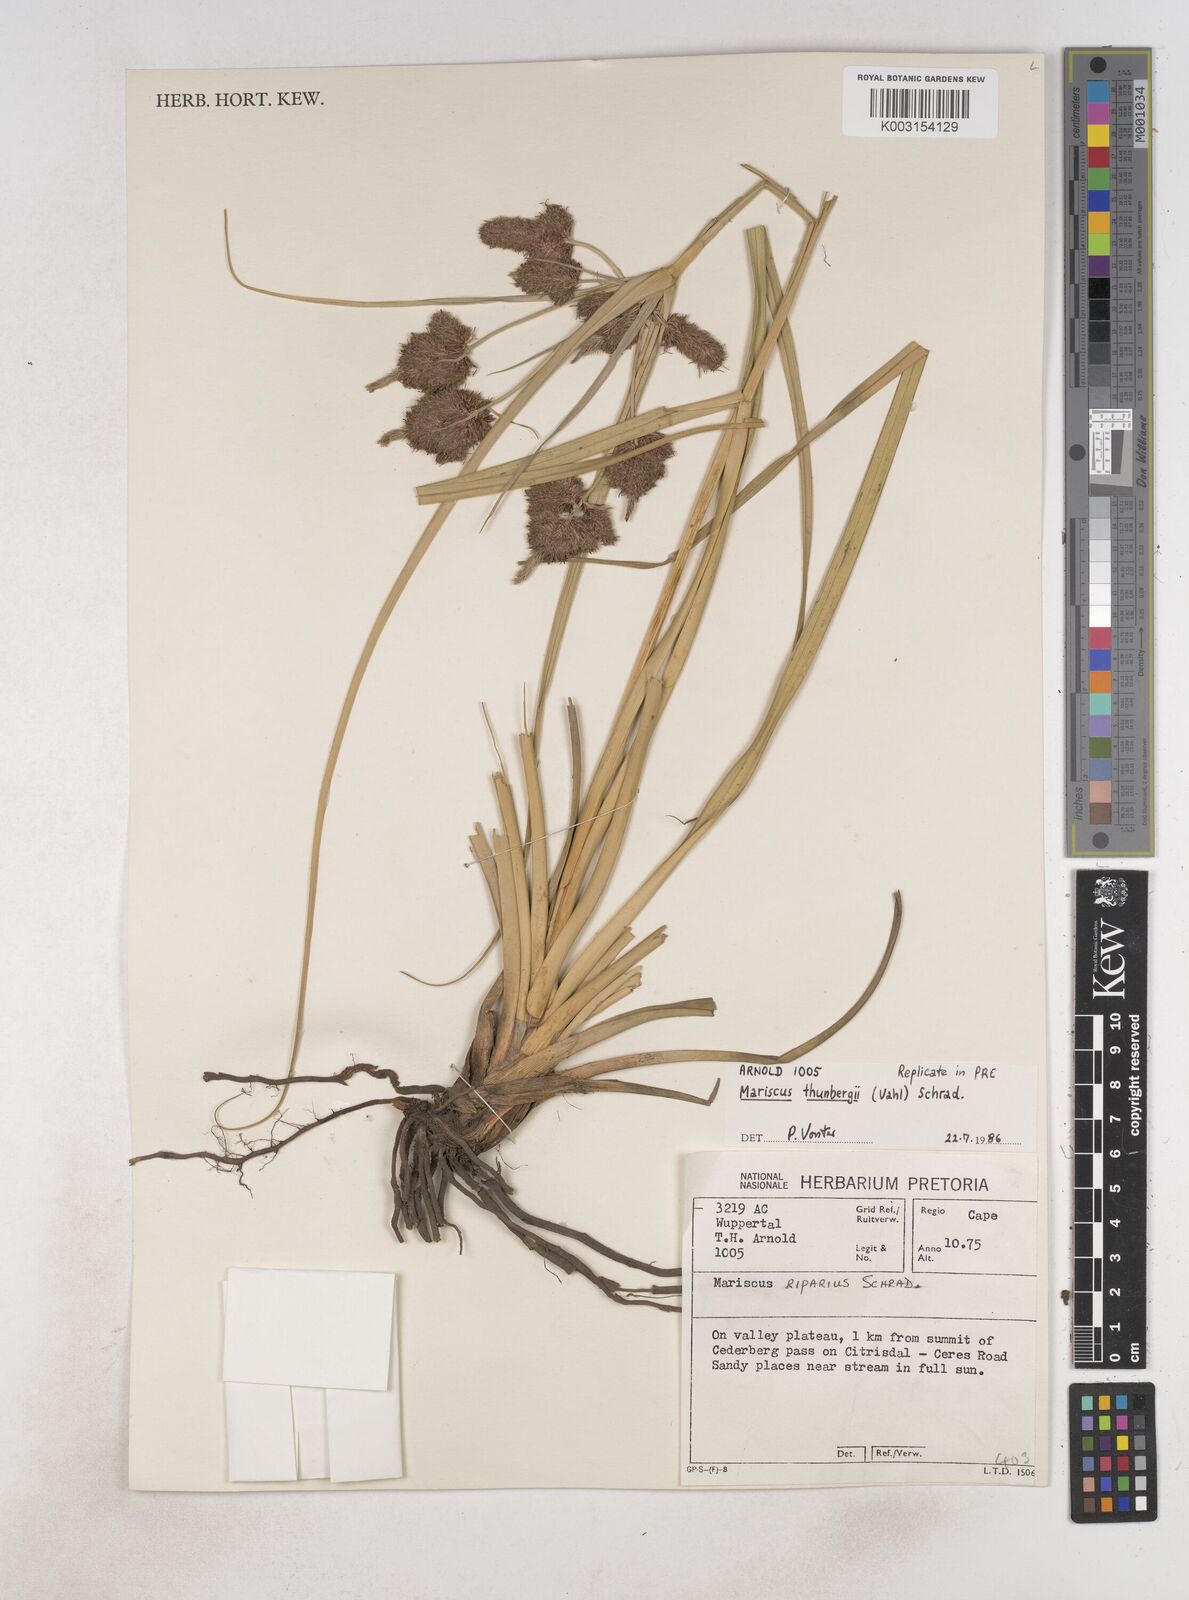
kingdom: Plantae
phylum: Tracheophyta
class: Liliopsida
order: Poales
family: Cyperaceae
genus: Cyperus
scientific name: Cyperus thunbergii
